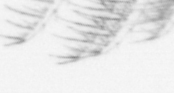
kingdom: Animalia
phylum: Arthropoda
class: Maxillopoda
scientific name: Maxillopoda
